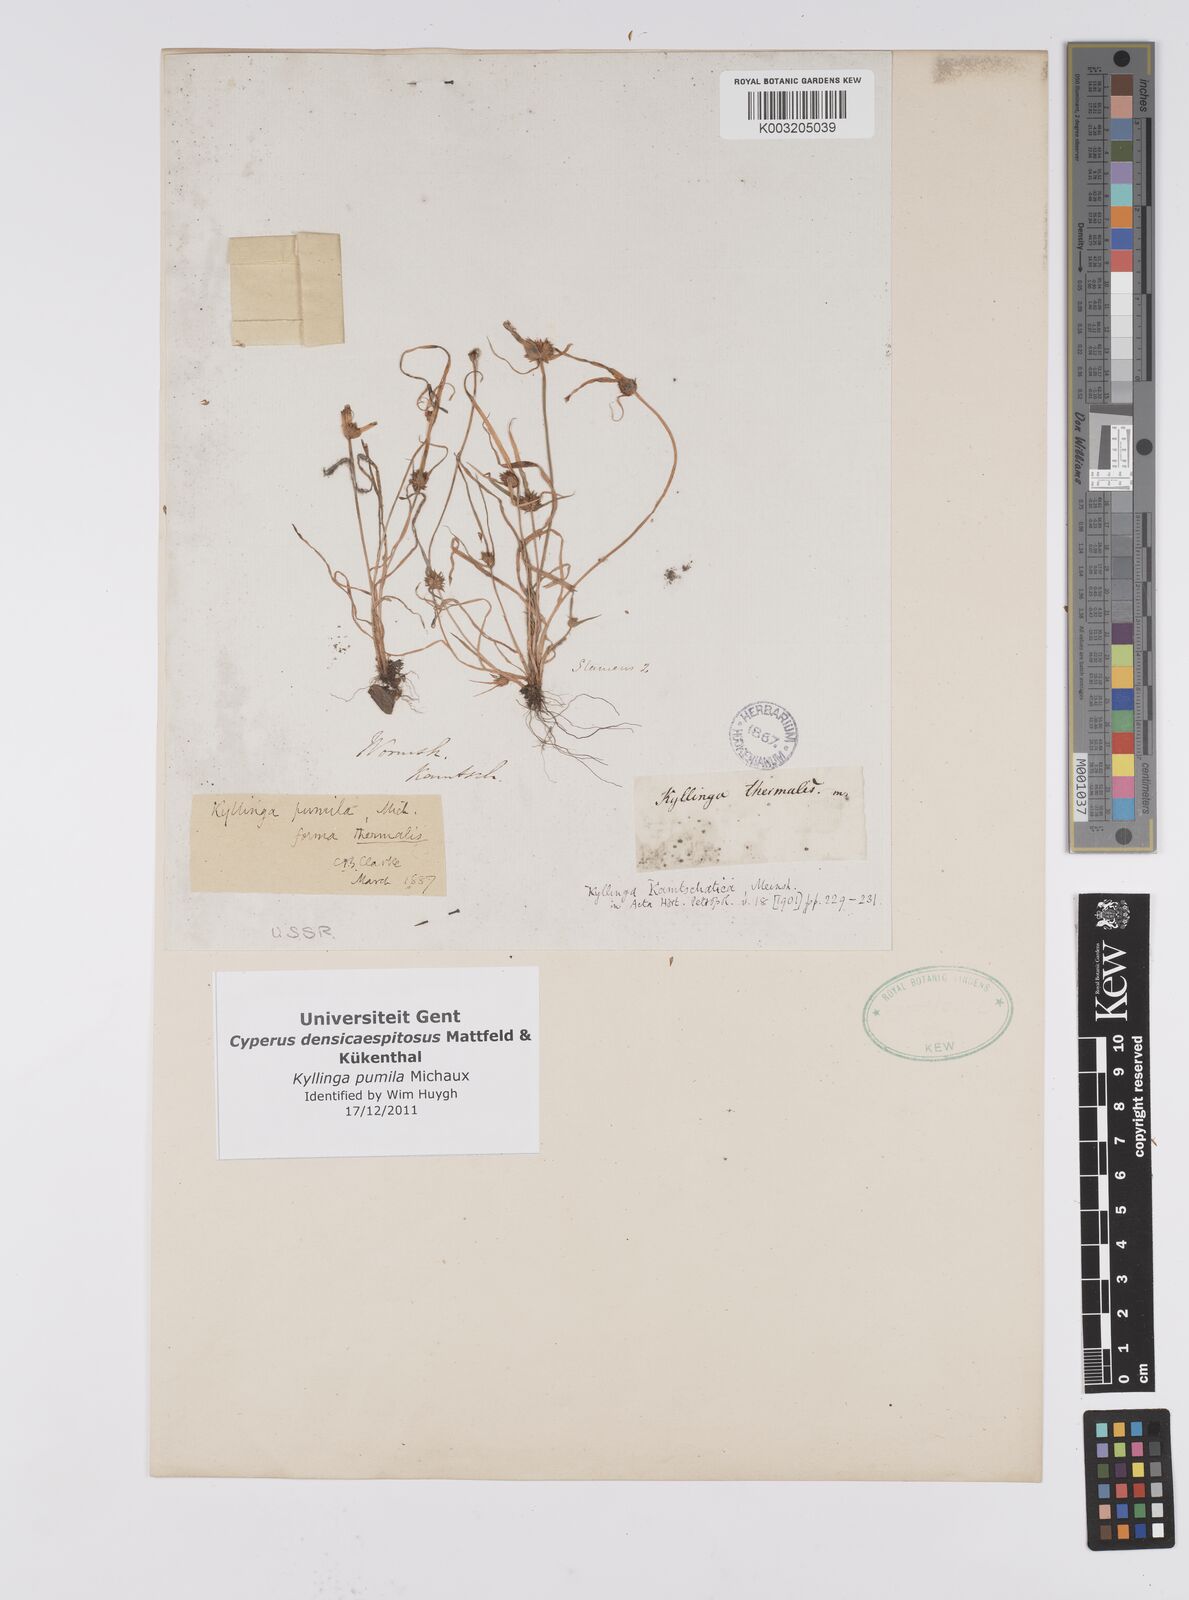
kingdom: Plantae
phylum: Tracheophyta
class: Liliopsida
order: Poales
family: Cyperaceae
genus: Cyperus
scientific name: Cyperus
